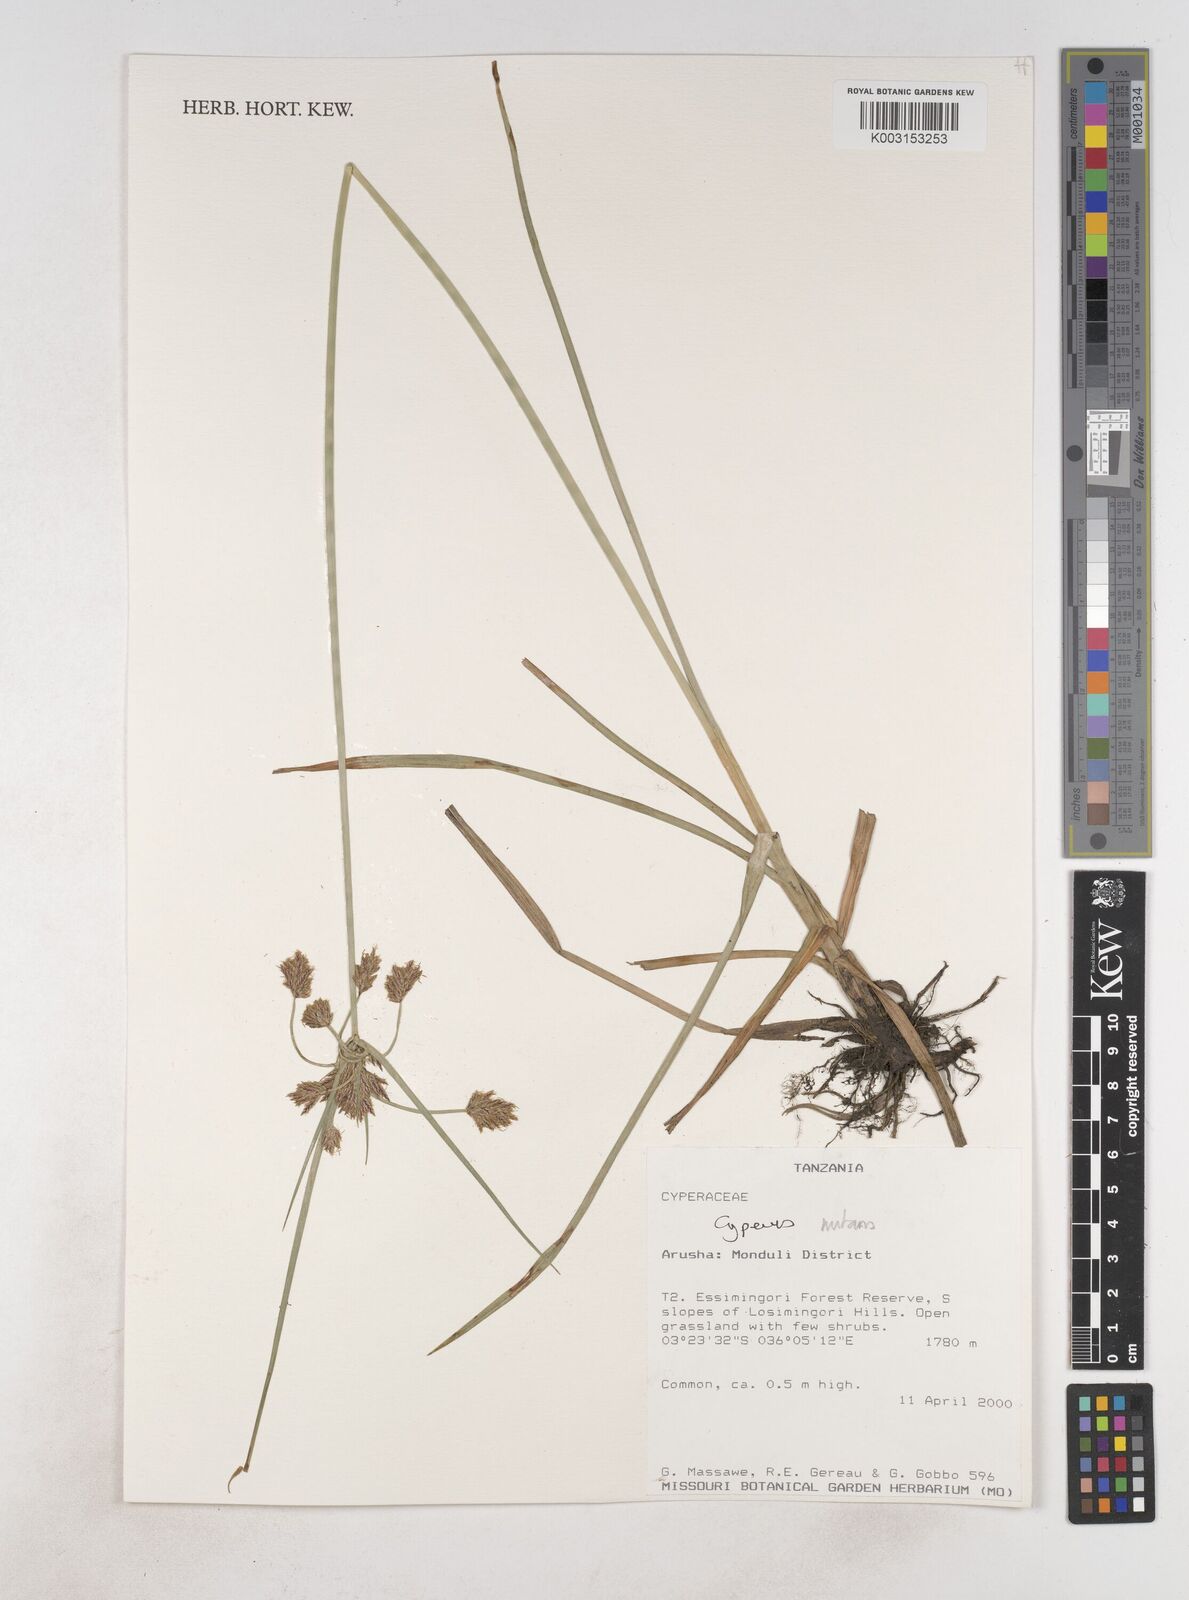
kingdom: Plantae
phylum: Tracheophyta
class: Liliopsida
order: Poales
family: Cyperaceae
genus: Cyperus
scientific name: Cyperus nutans
